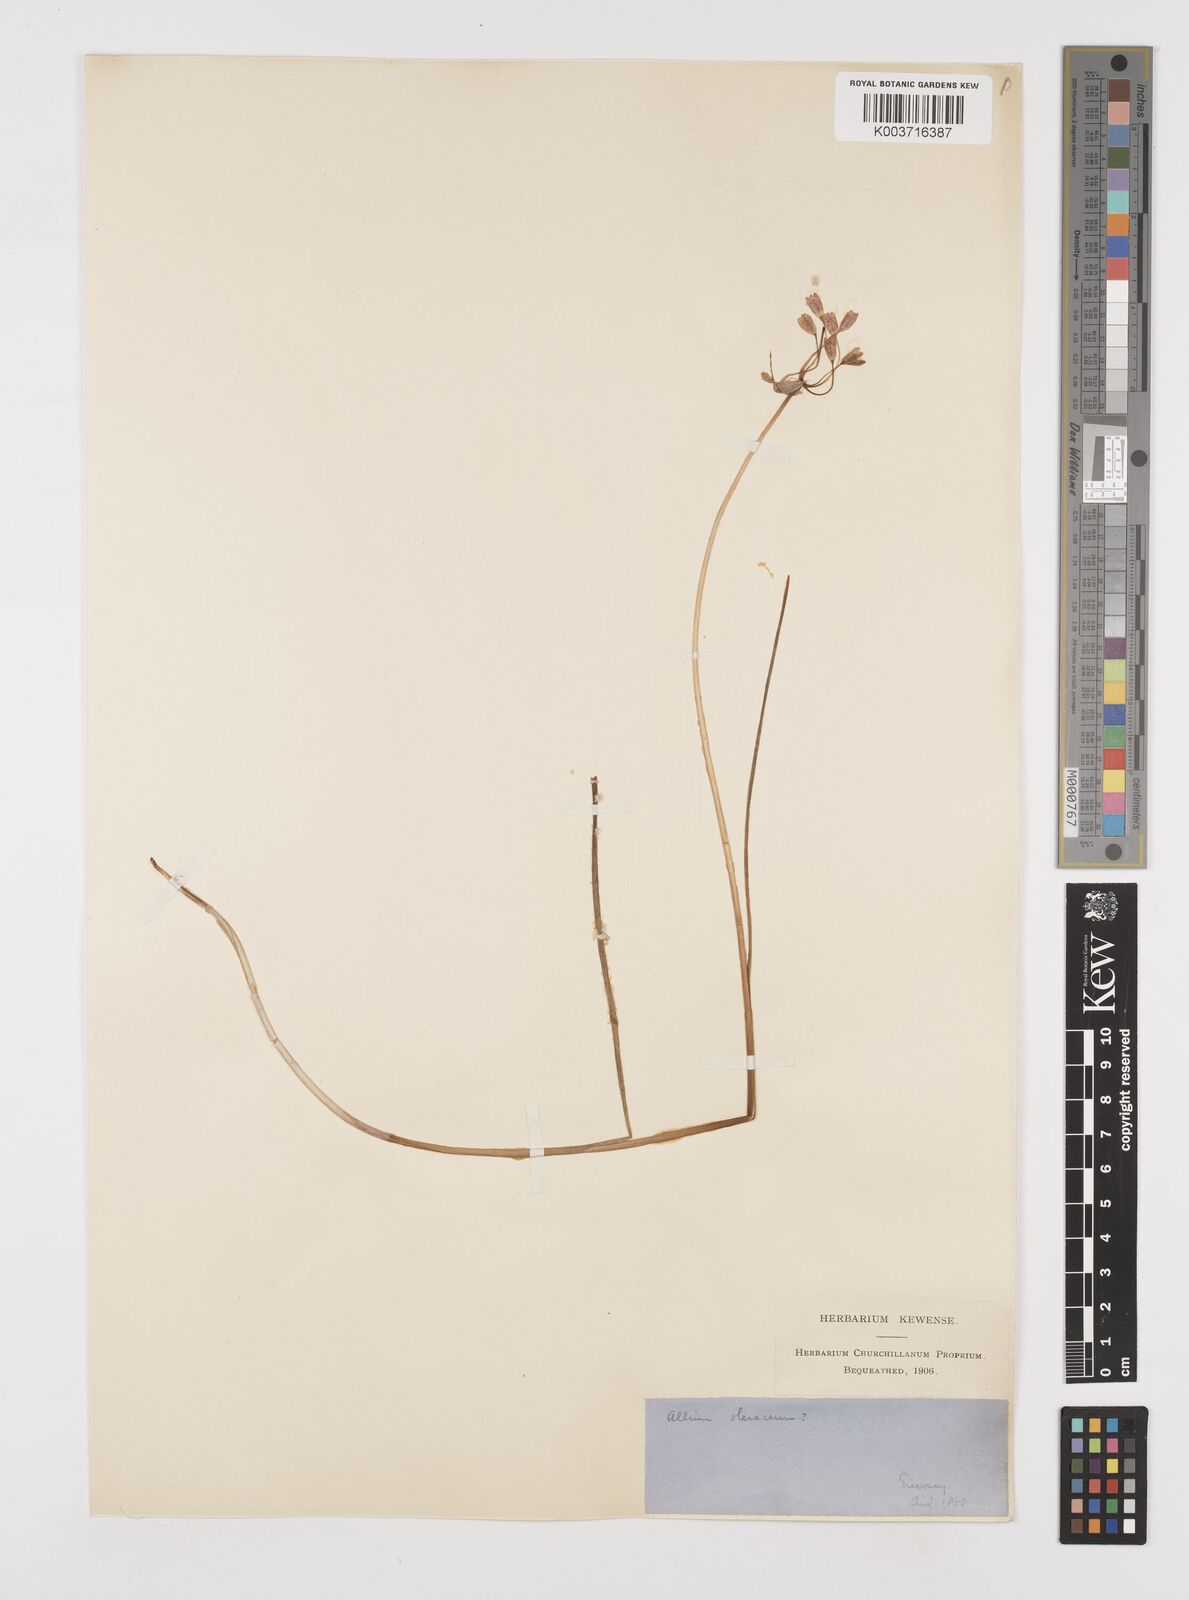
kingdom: Plantae
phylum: Tracheophyta
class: Liliopsida
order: Asparagales
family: Amaryllidaceae
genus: Allium
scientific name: Allium oleraceum
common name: Field garlic
